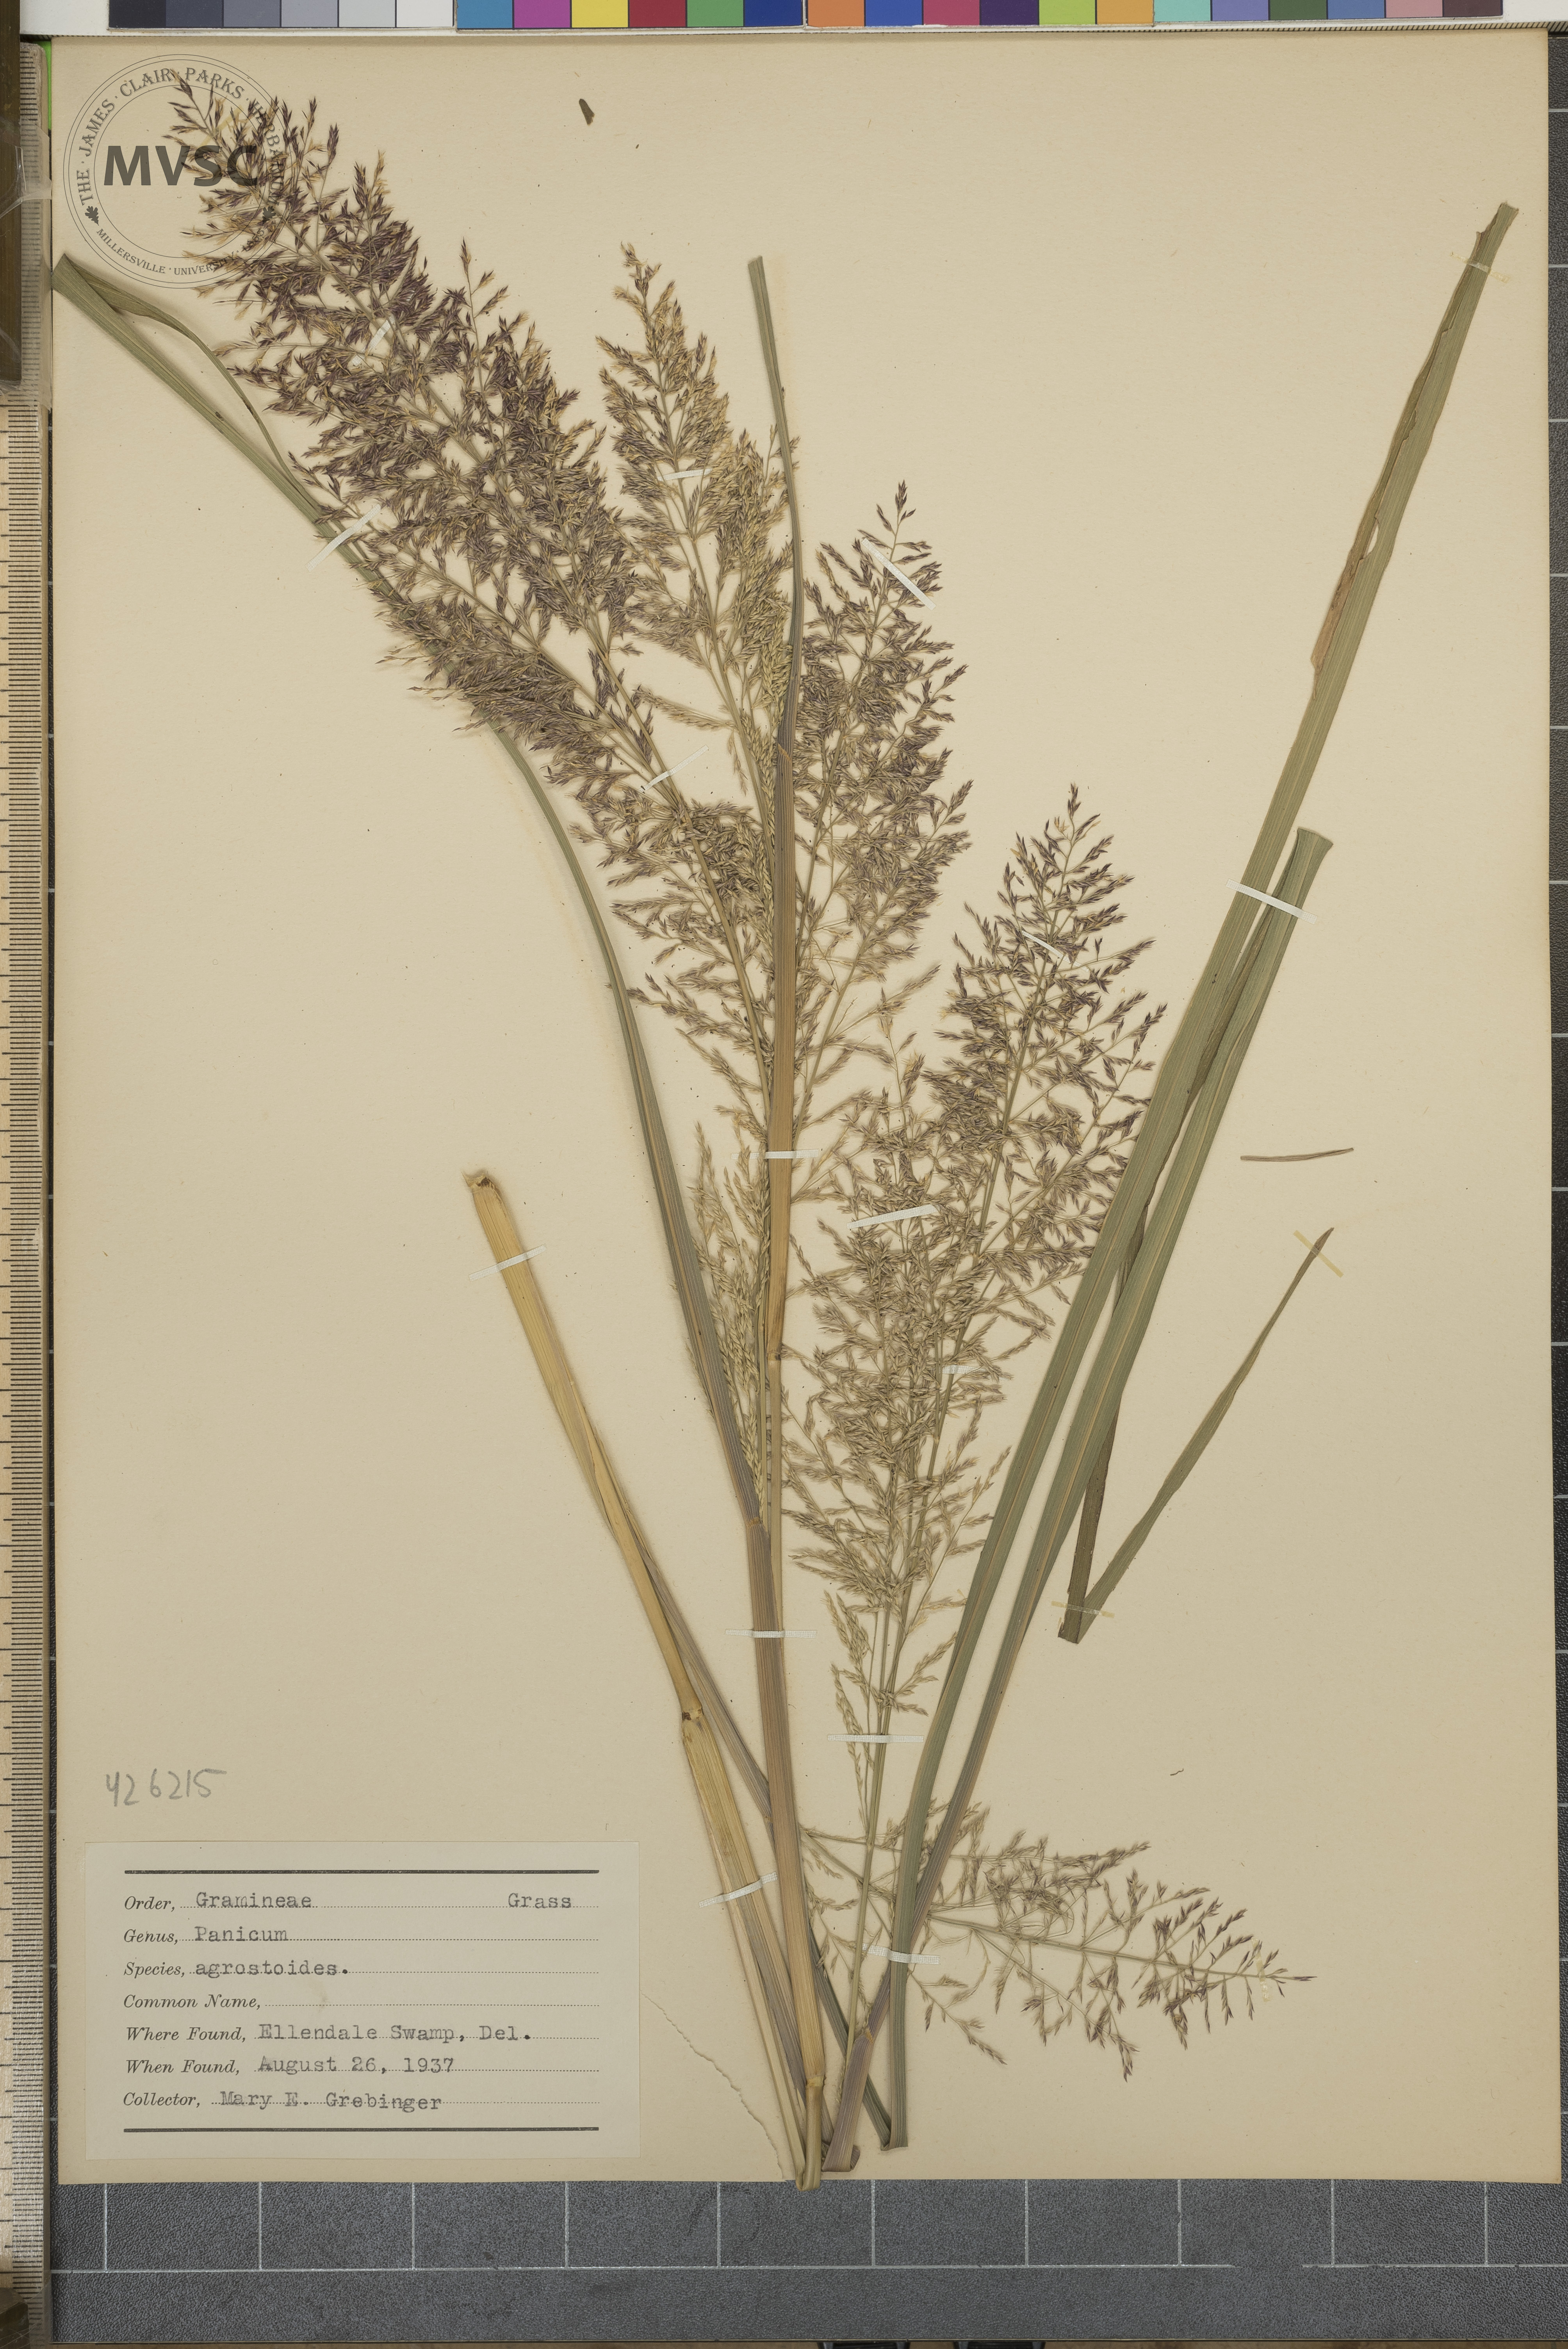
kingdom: Plantae
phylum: Tracheophyta
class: Liliopsida
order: Poales
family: Poaceae
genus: Panicum
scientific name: Panicum agrostoides
